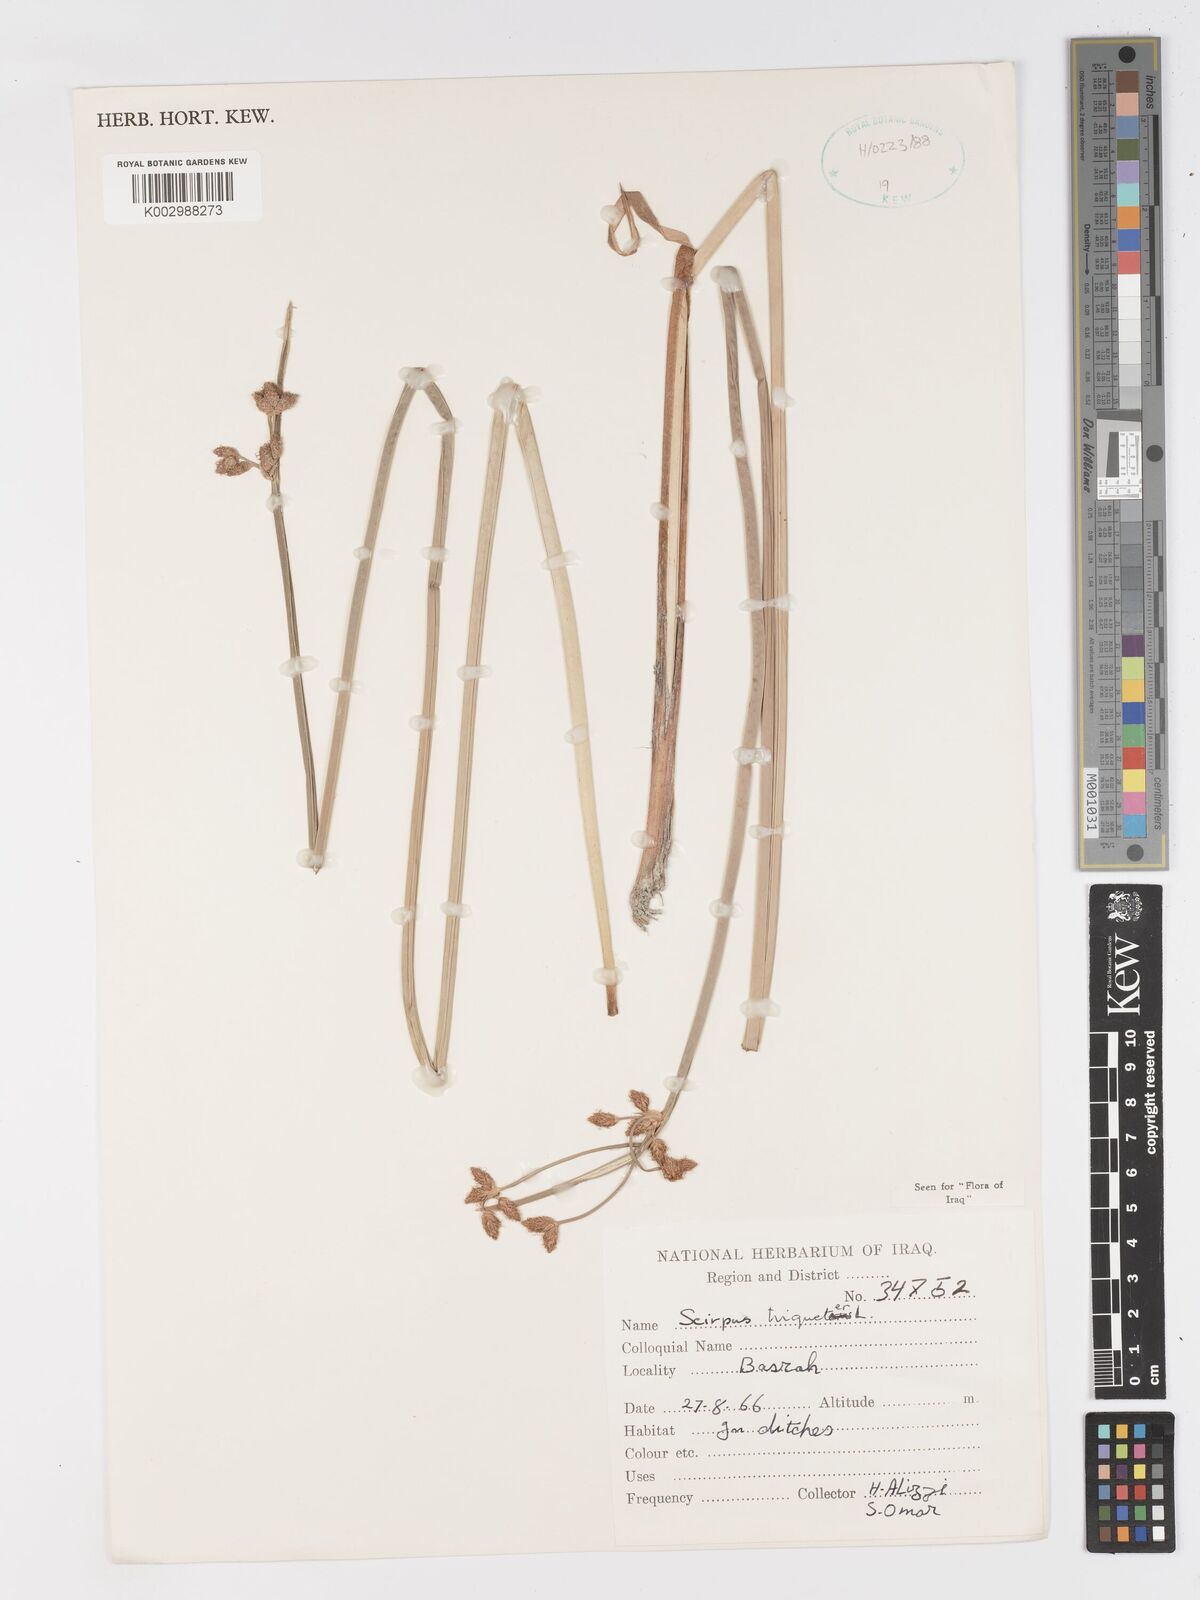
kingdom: Plantae
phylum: Tracheophyta
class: Liliopsida
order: Poales
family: Cyperaceae
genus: Schoenoplectus
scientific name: Schoenoplectus triqueter
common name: Triangular club-rush
